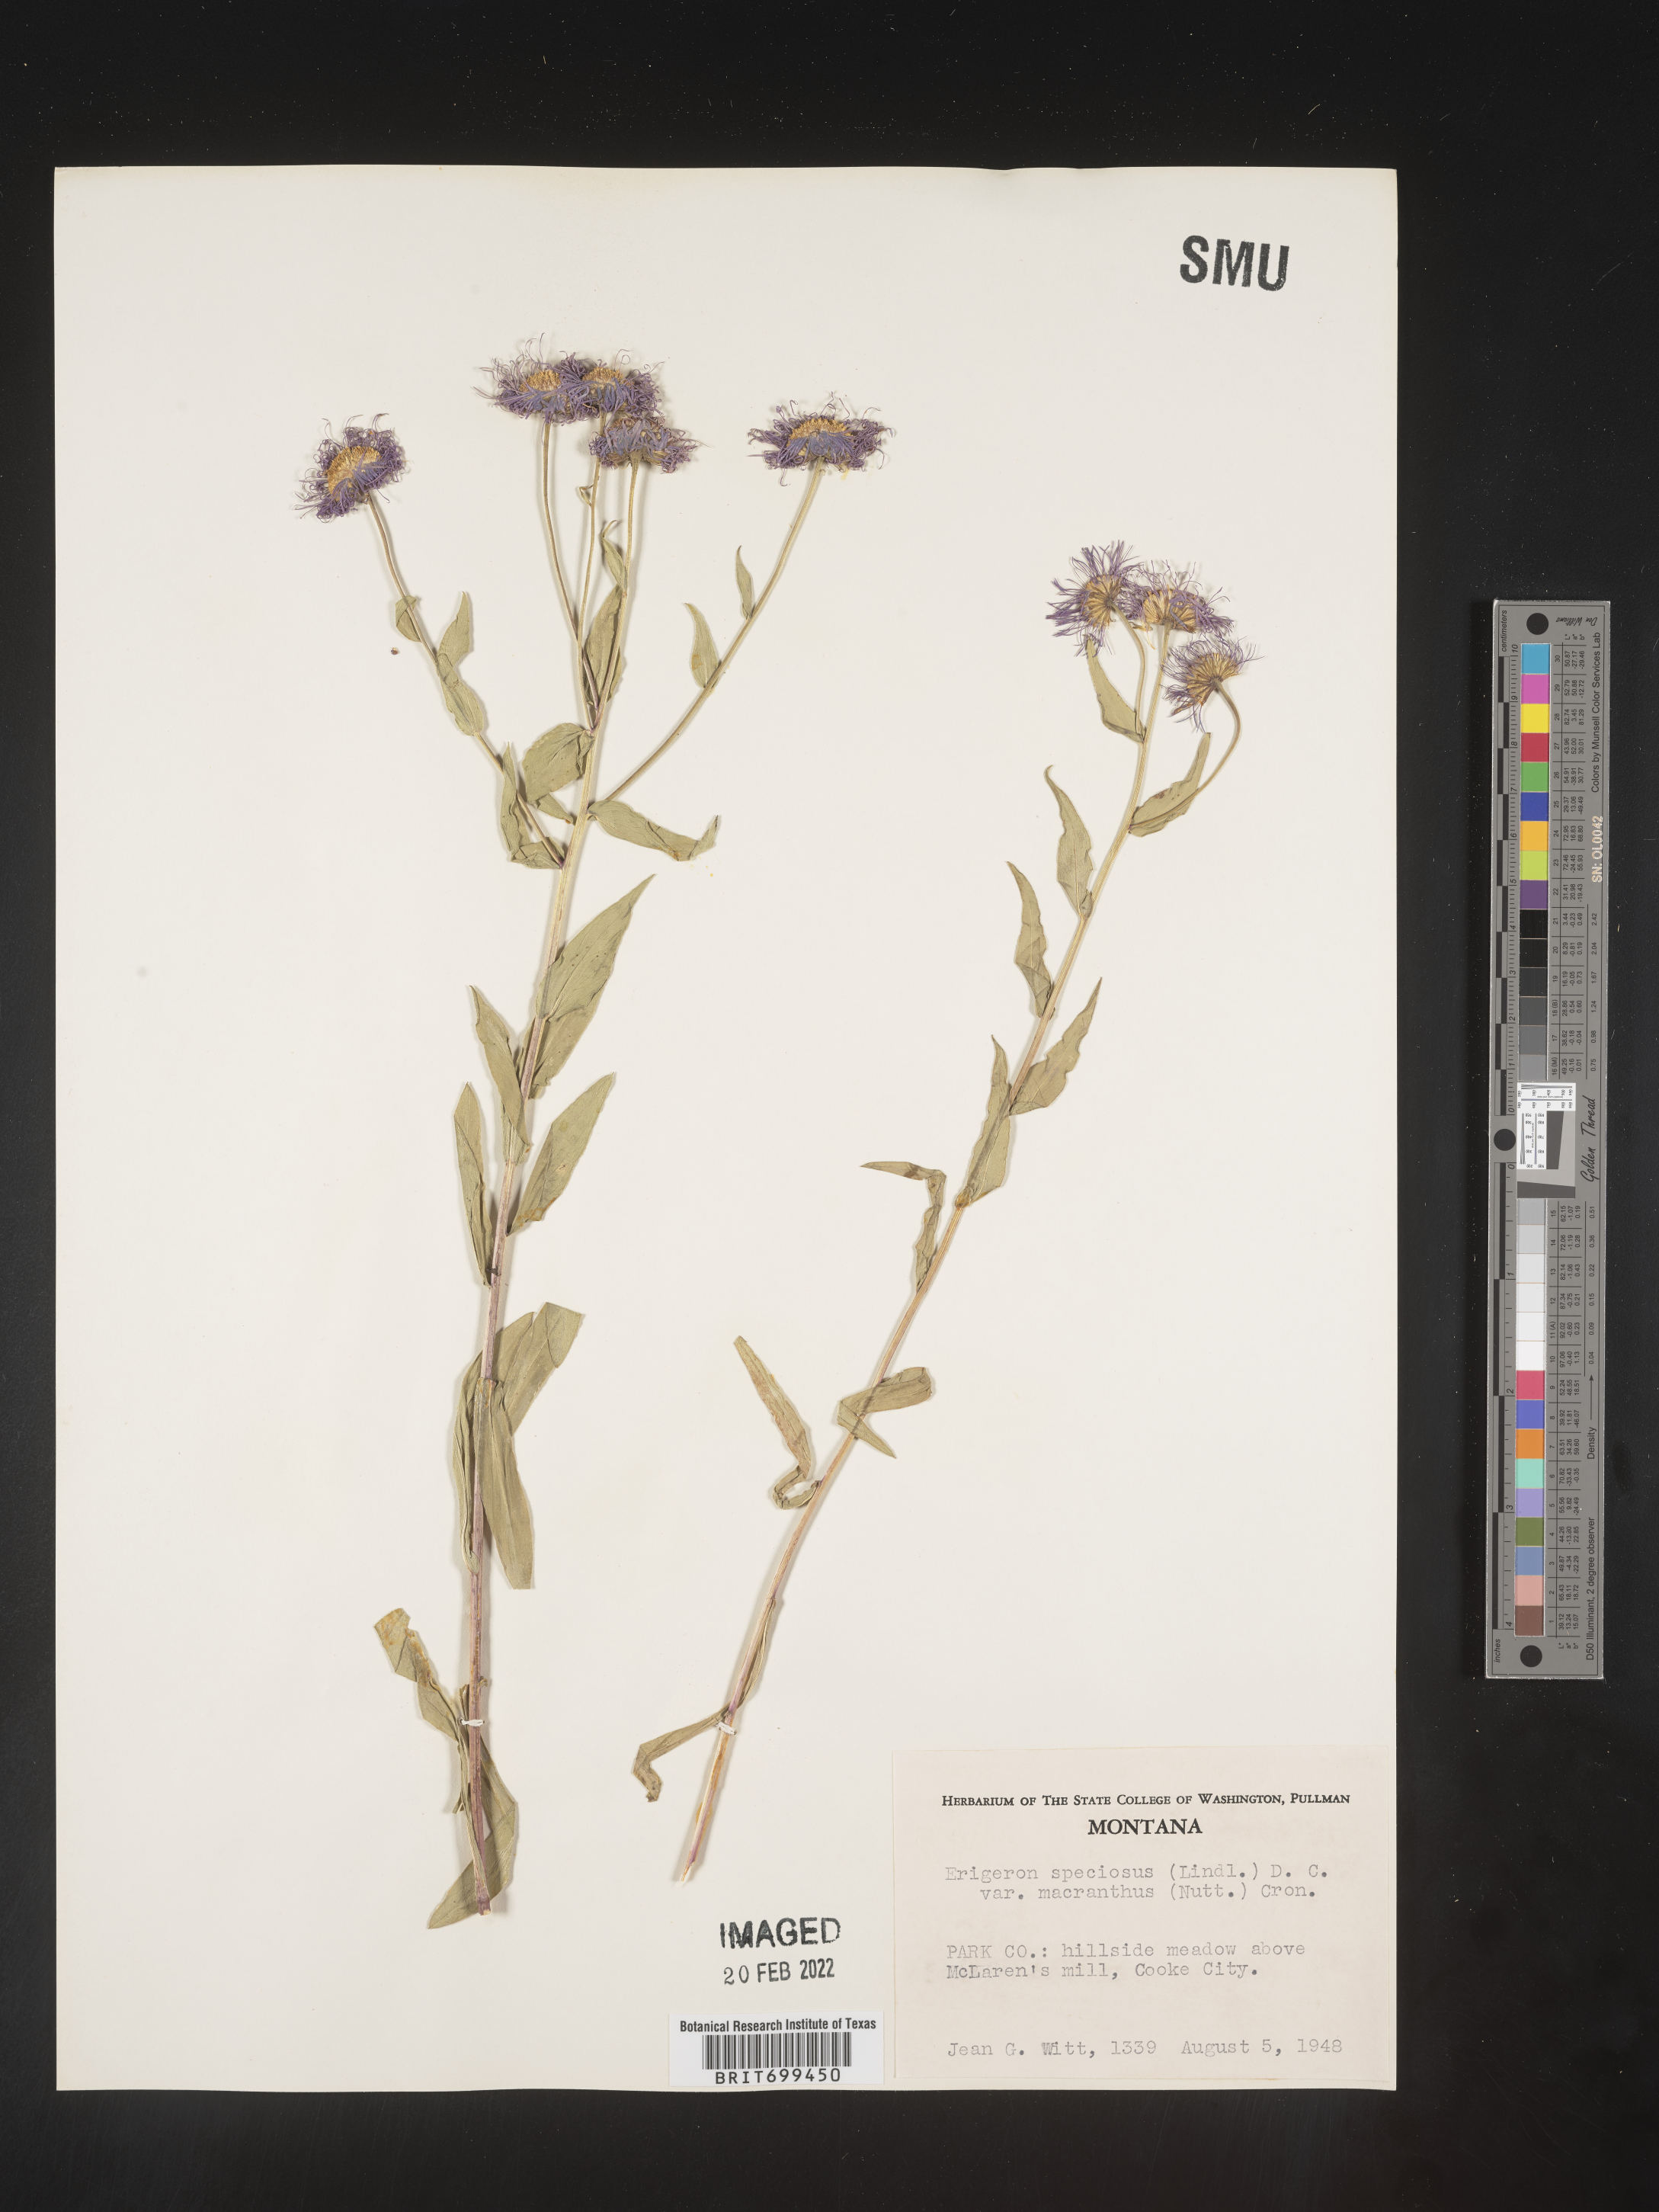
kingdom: Plantae
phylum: Tracheophyta
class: Magnoliopsida
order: Asterales
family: Asteraceae
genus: Erigeron
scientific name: Erigeron speciosus
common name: Aspen fleabane
